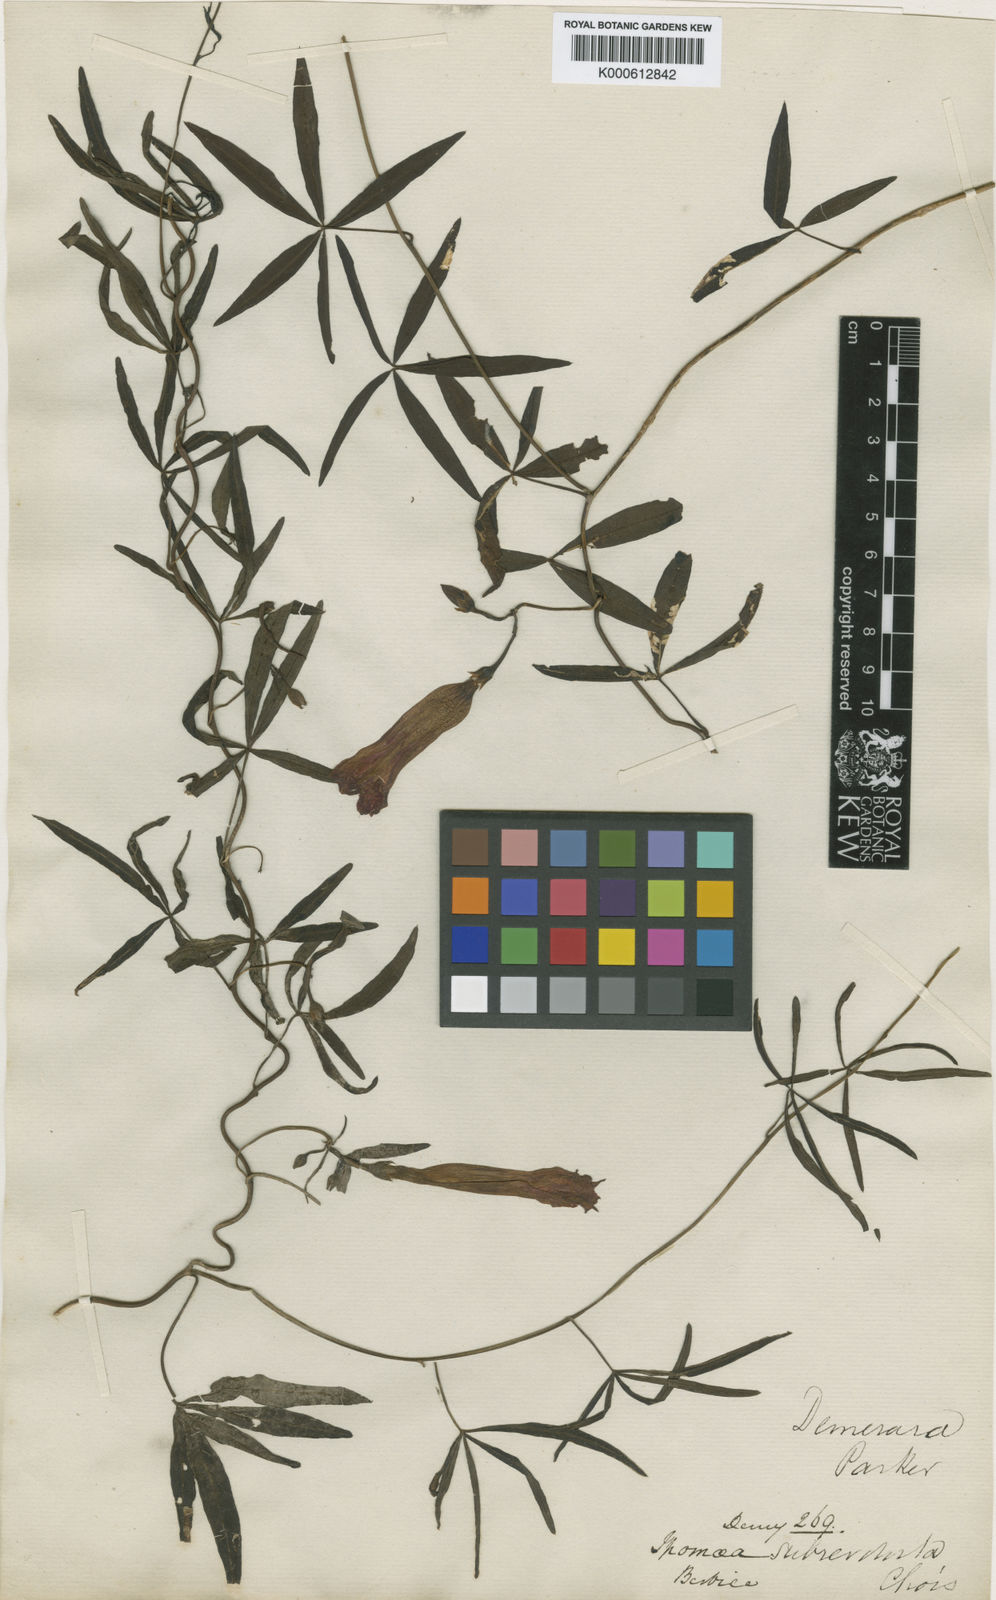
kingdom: Plantae
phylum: Tracheophyta
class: Magnoliopsida
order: Solanales
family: Convolvulaceae
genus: Ipomoea
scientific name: Ipomoea subrevoluta
